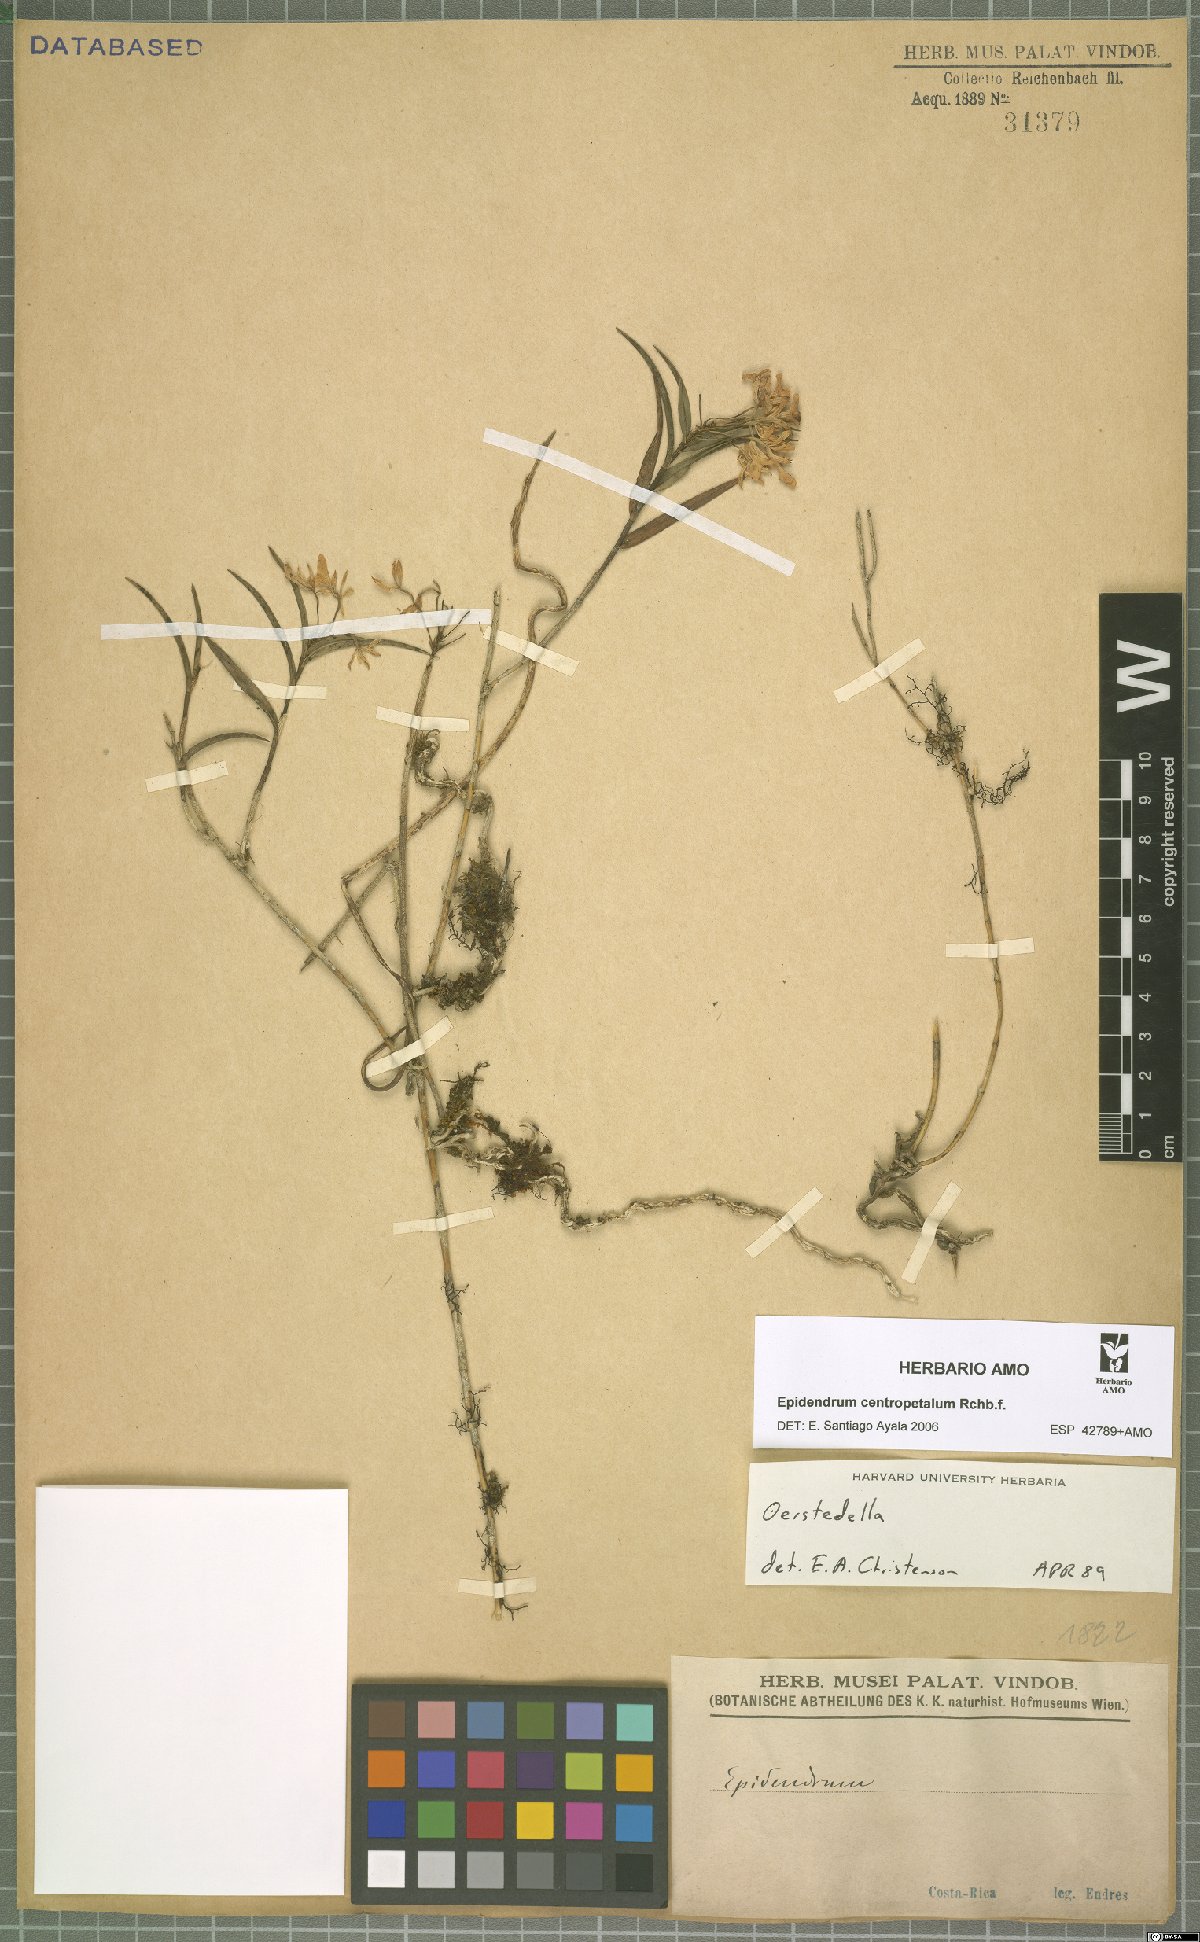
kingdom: Plantae
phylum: Tracheophyta
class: Liliopsida
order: Asparagales
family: Orchidaceae
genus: Epidendrum
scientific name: Epidendrum centropetalum
